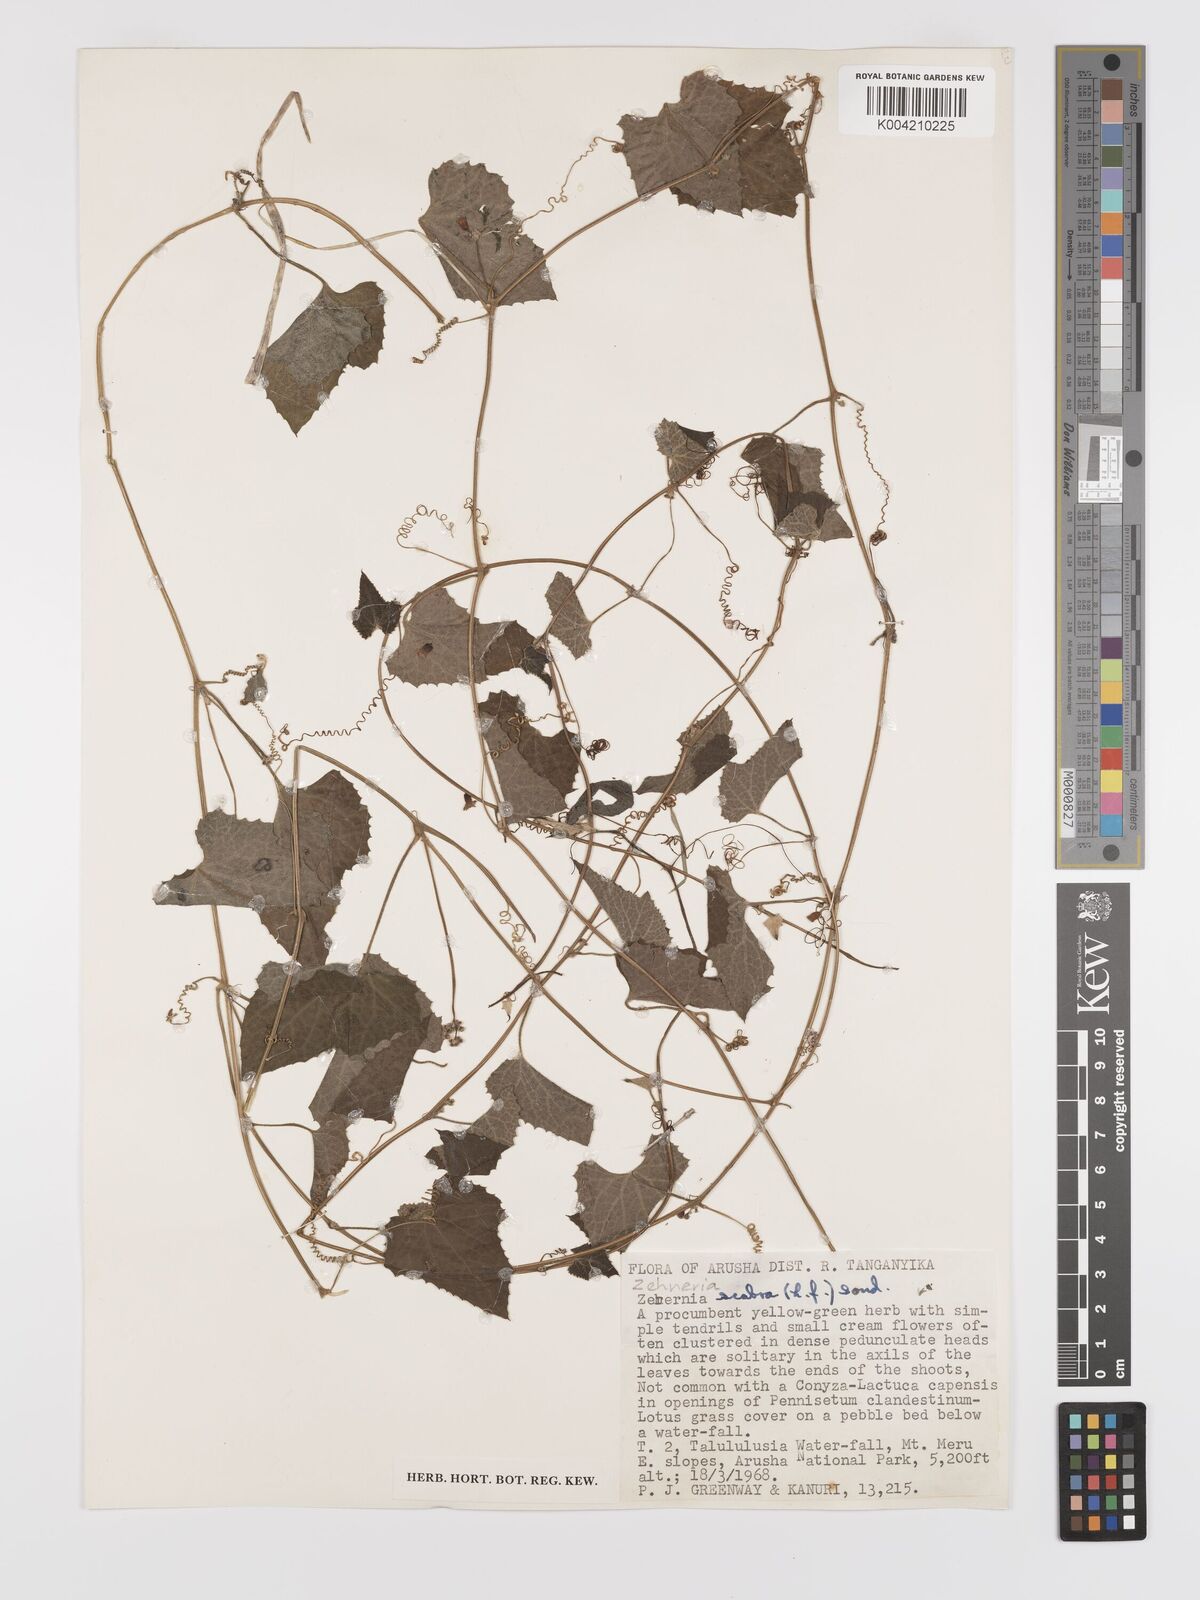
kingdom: Plantae
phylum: Tracheophyta
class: Magnoliopsida
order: Cucurbitales
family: Cucurbitaceae
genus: Zehneria
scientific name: Zehneria scabra
